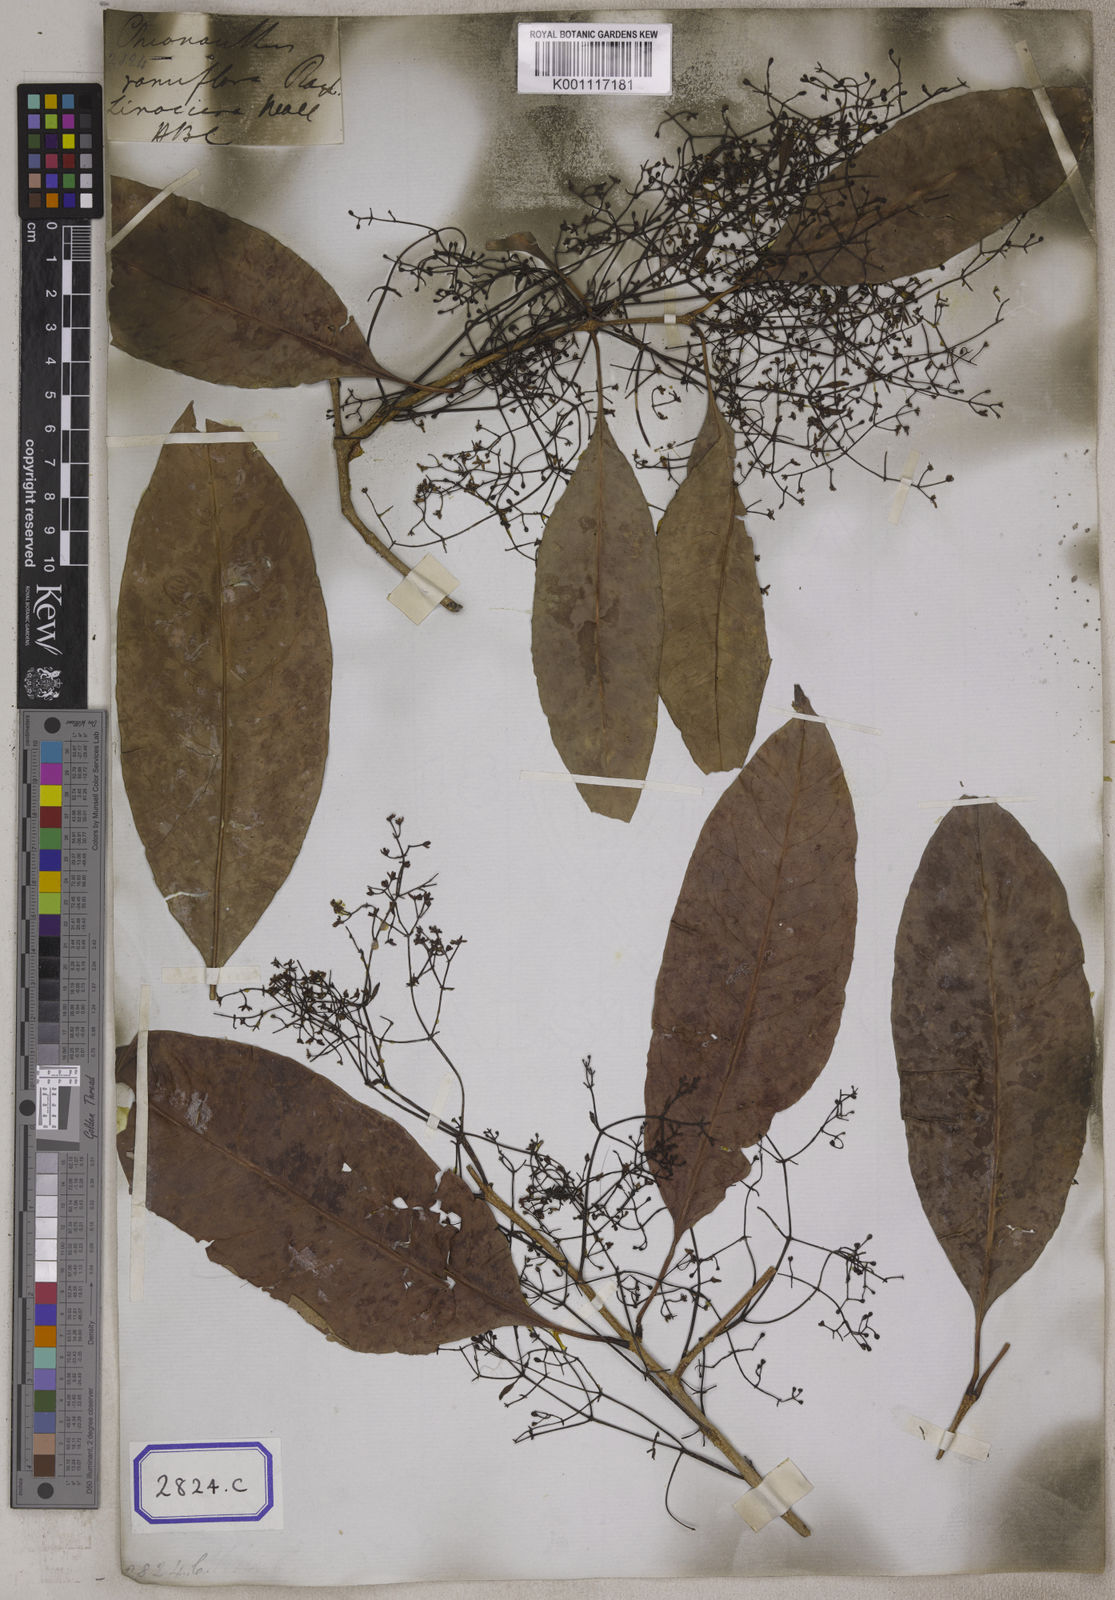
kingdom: Plantae
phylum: Tracheophyta
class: Magnoliopsida
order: Lamiales
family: Oleaceae
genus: Chionanthus
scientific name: Chionanthus ramiflorus
